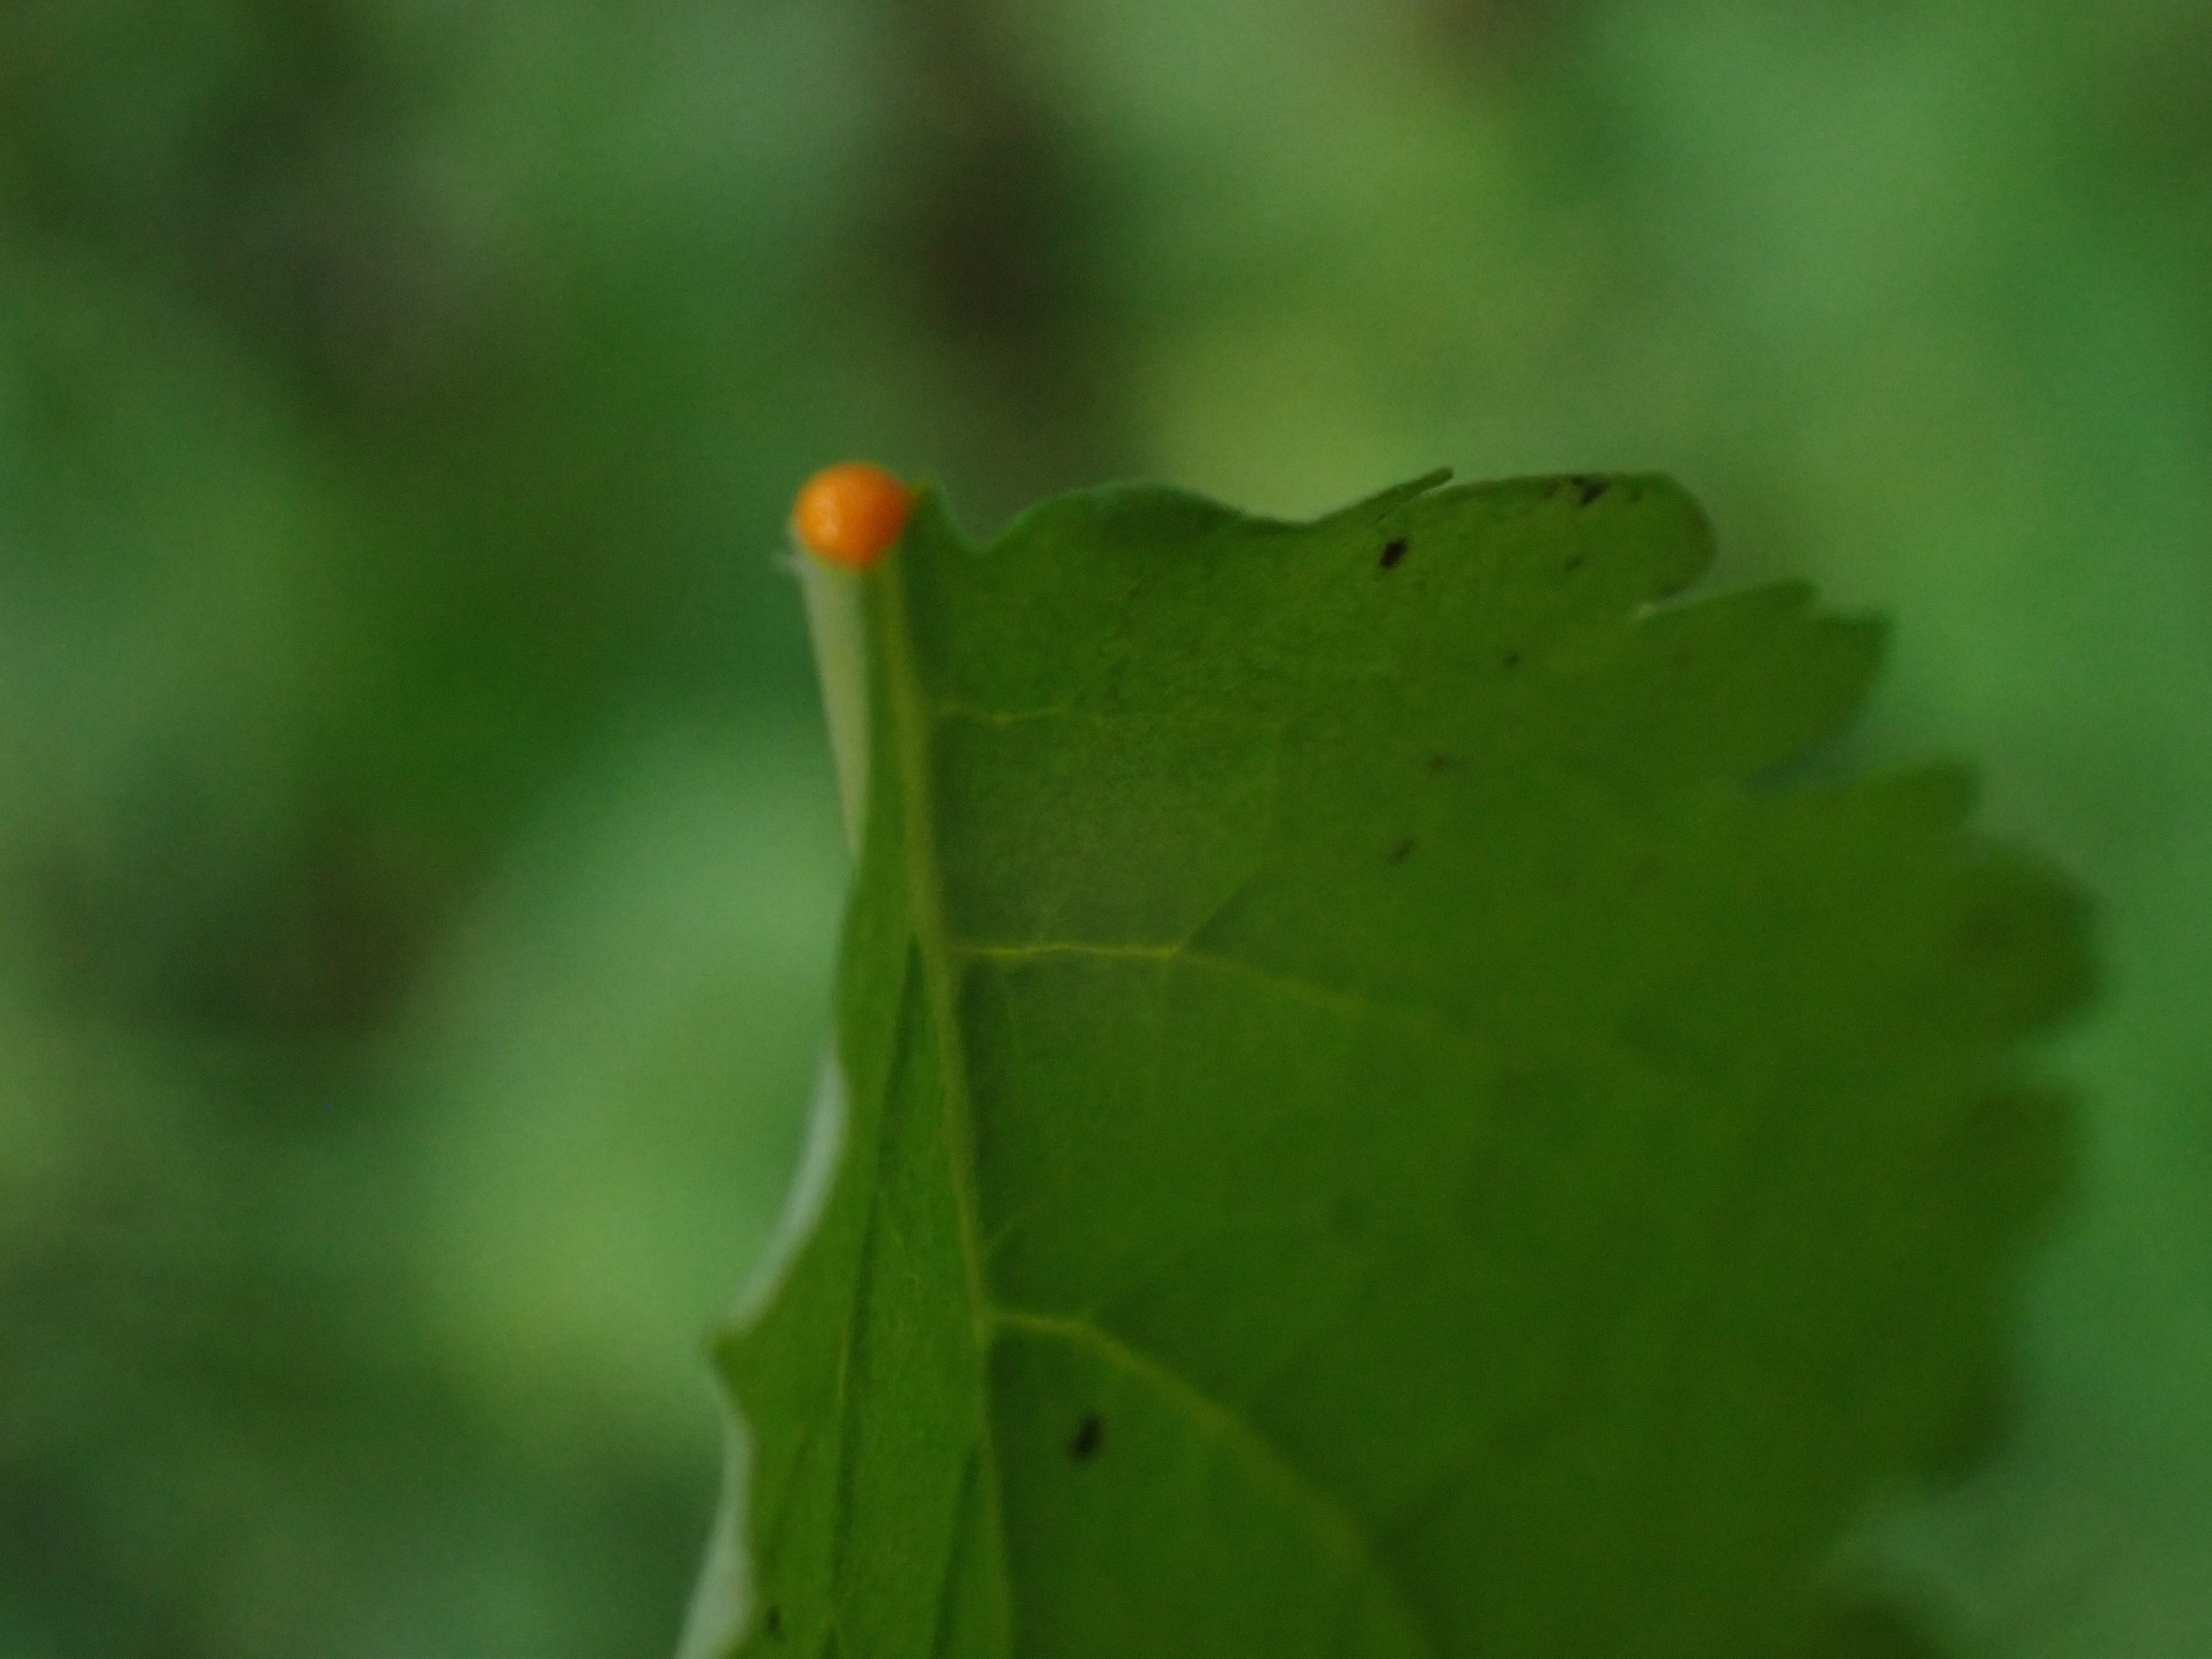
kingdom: Plantae
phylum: Tracheophyta
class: Magnoliopsida
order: Ranunculales
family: Papaveraceae
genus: Chelidonium
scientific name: Chelidonium majus
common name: Svaleurt
